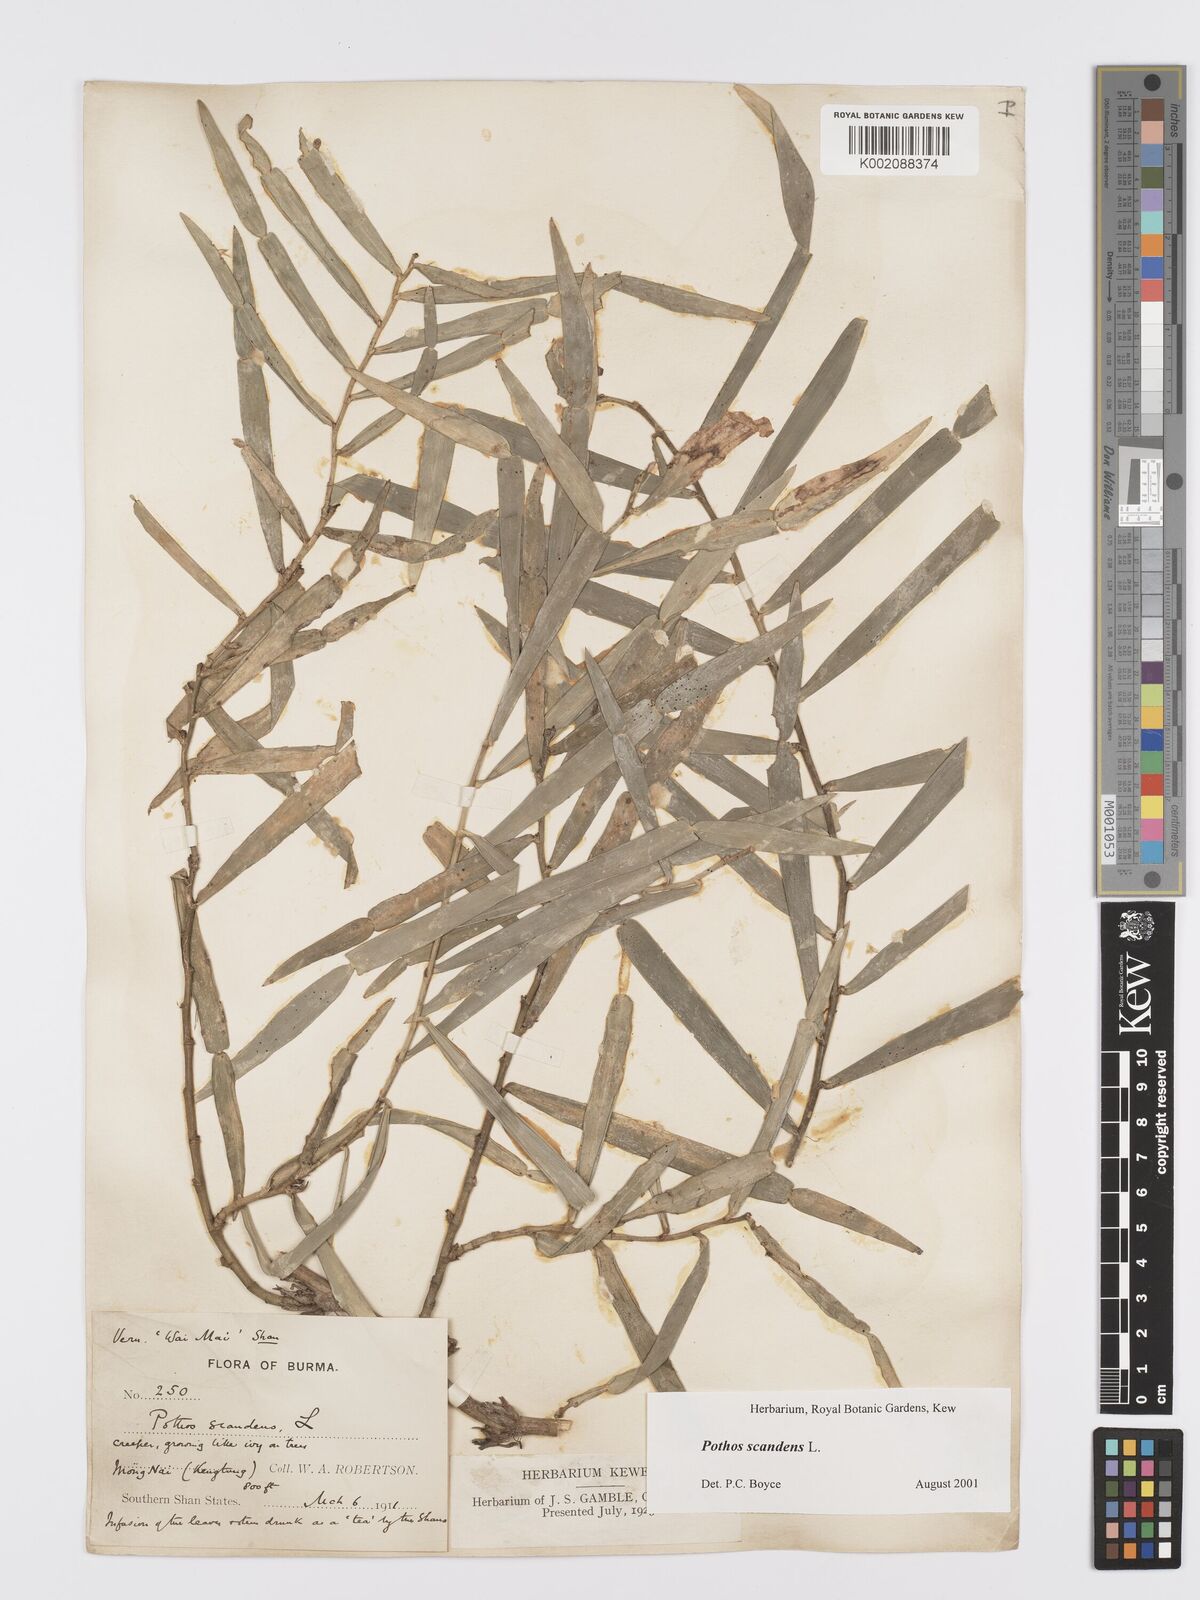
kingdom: Plantae
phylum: Tracheophyta
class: Liliopsida
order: Alismatales
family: Araceae
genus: Pothos
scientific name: Pothos scandens
